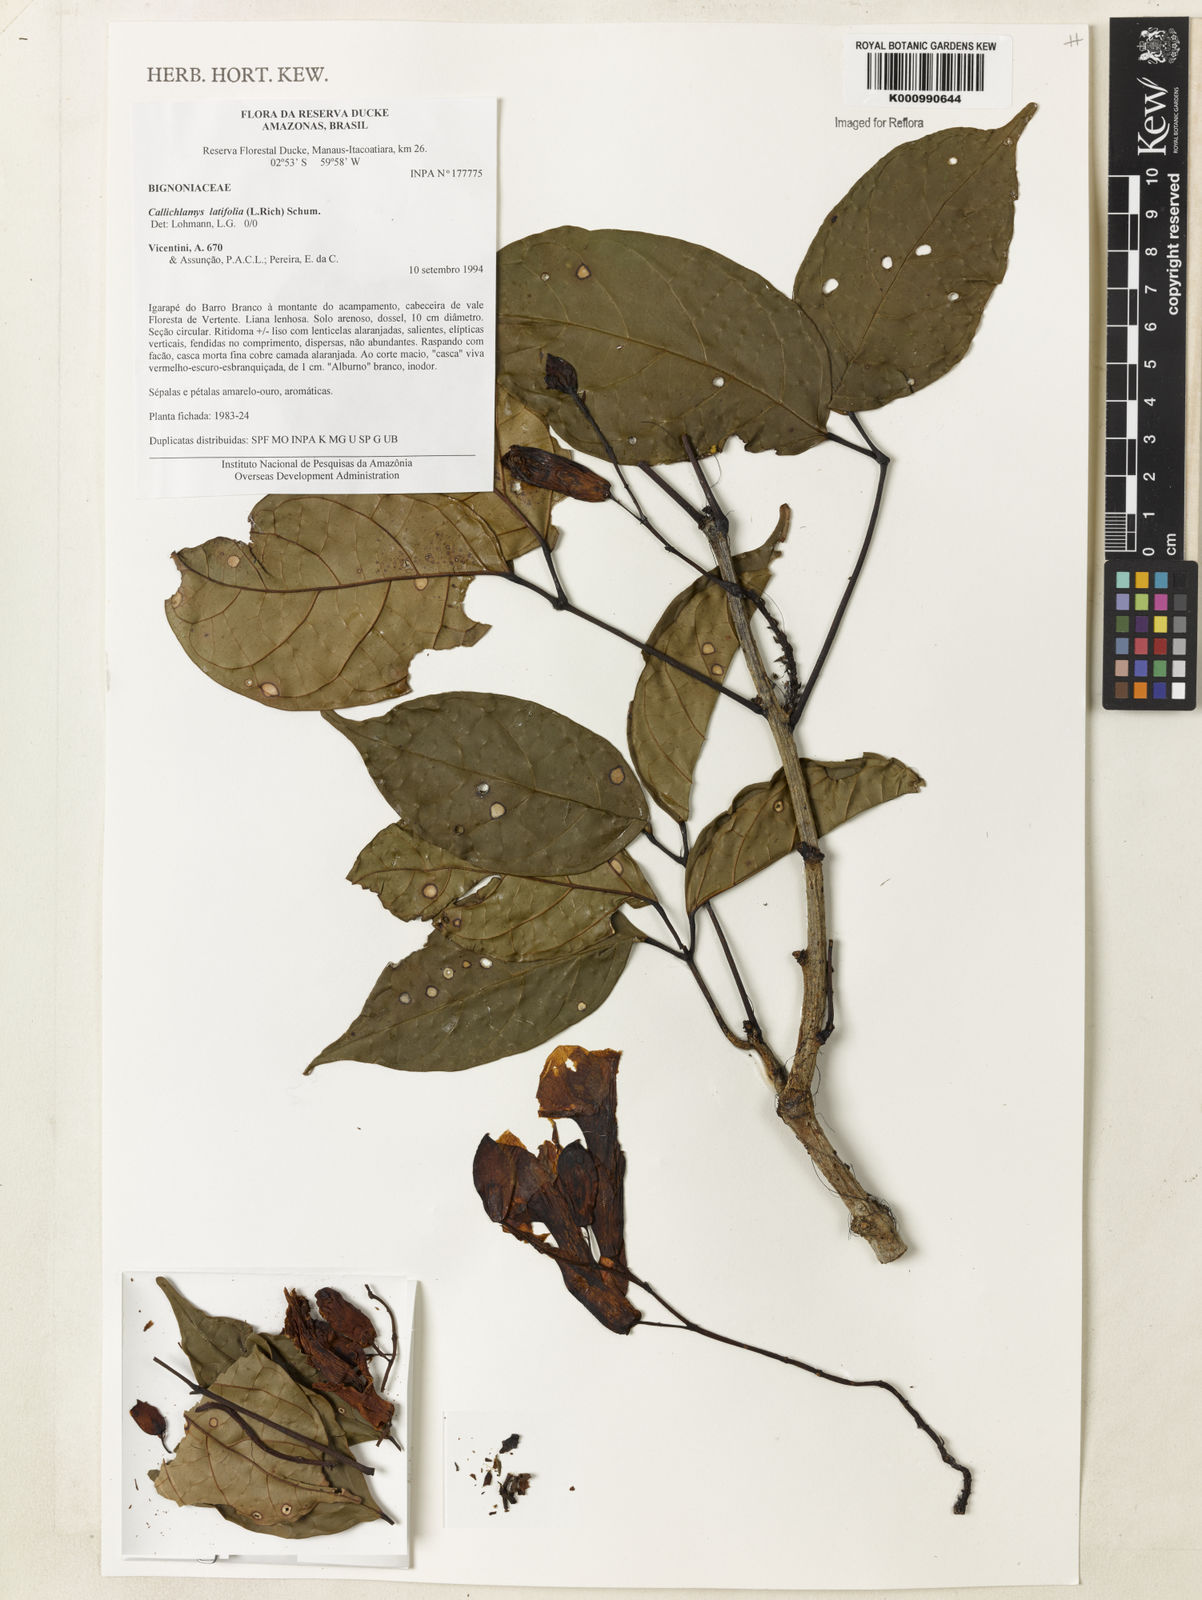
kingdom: Plantae
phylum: Tracheophyta
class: Magnoliopsida
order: Lamiales
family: Bignoniaceae
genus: Callichlamys
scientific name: Callichlamys latifolia
